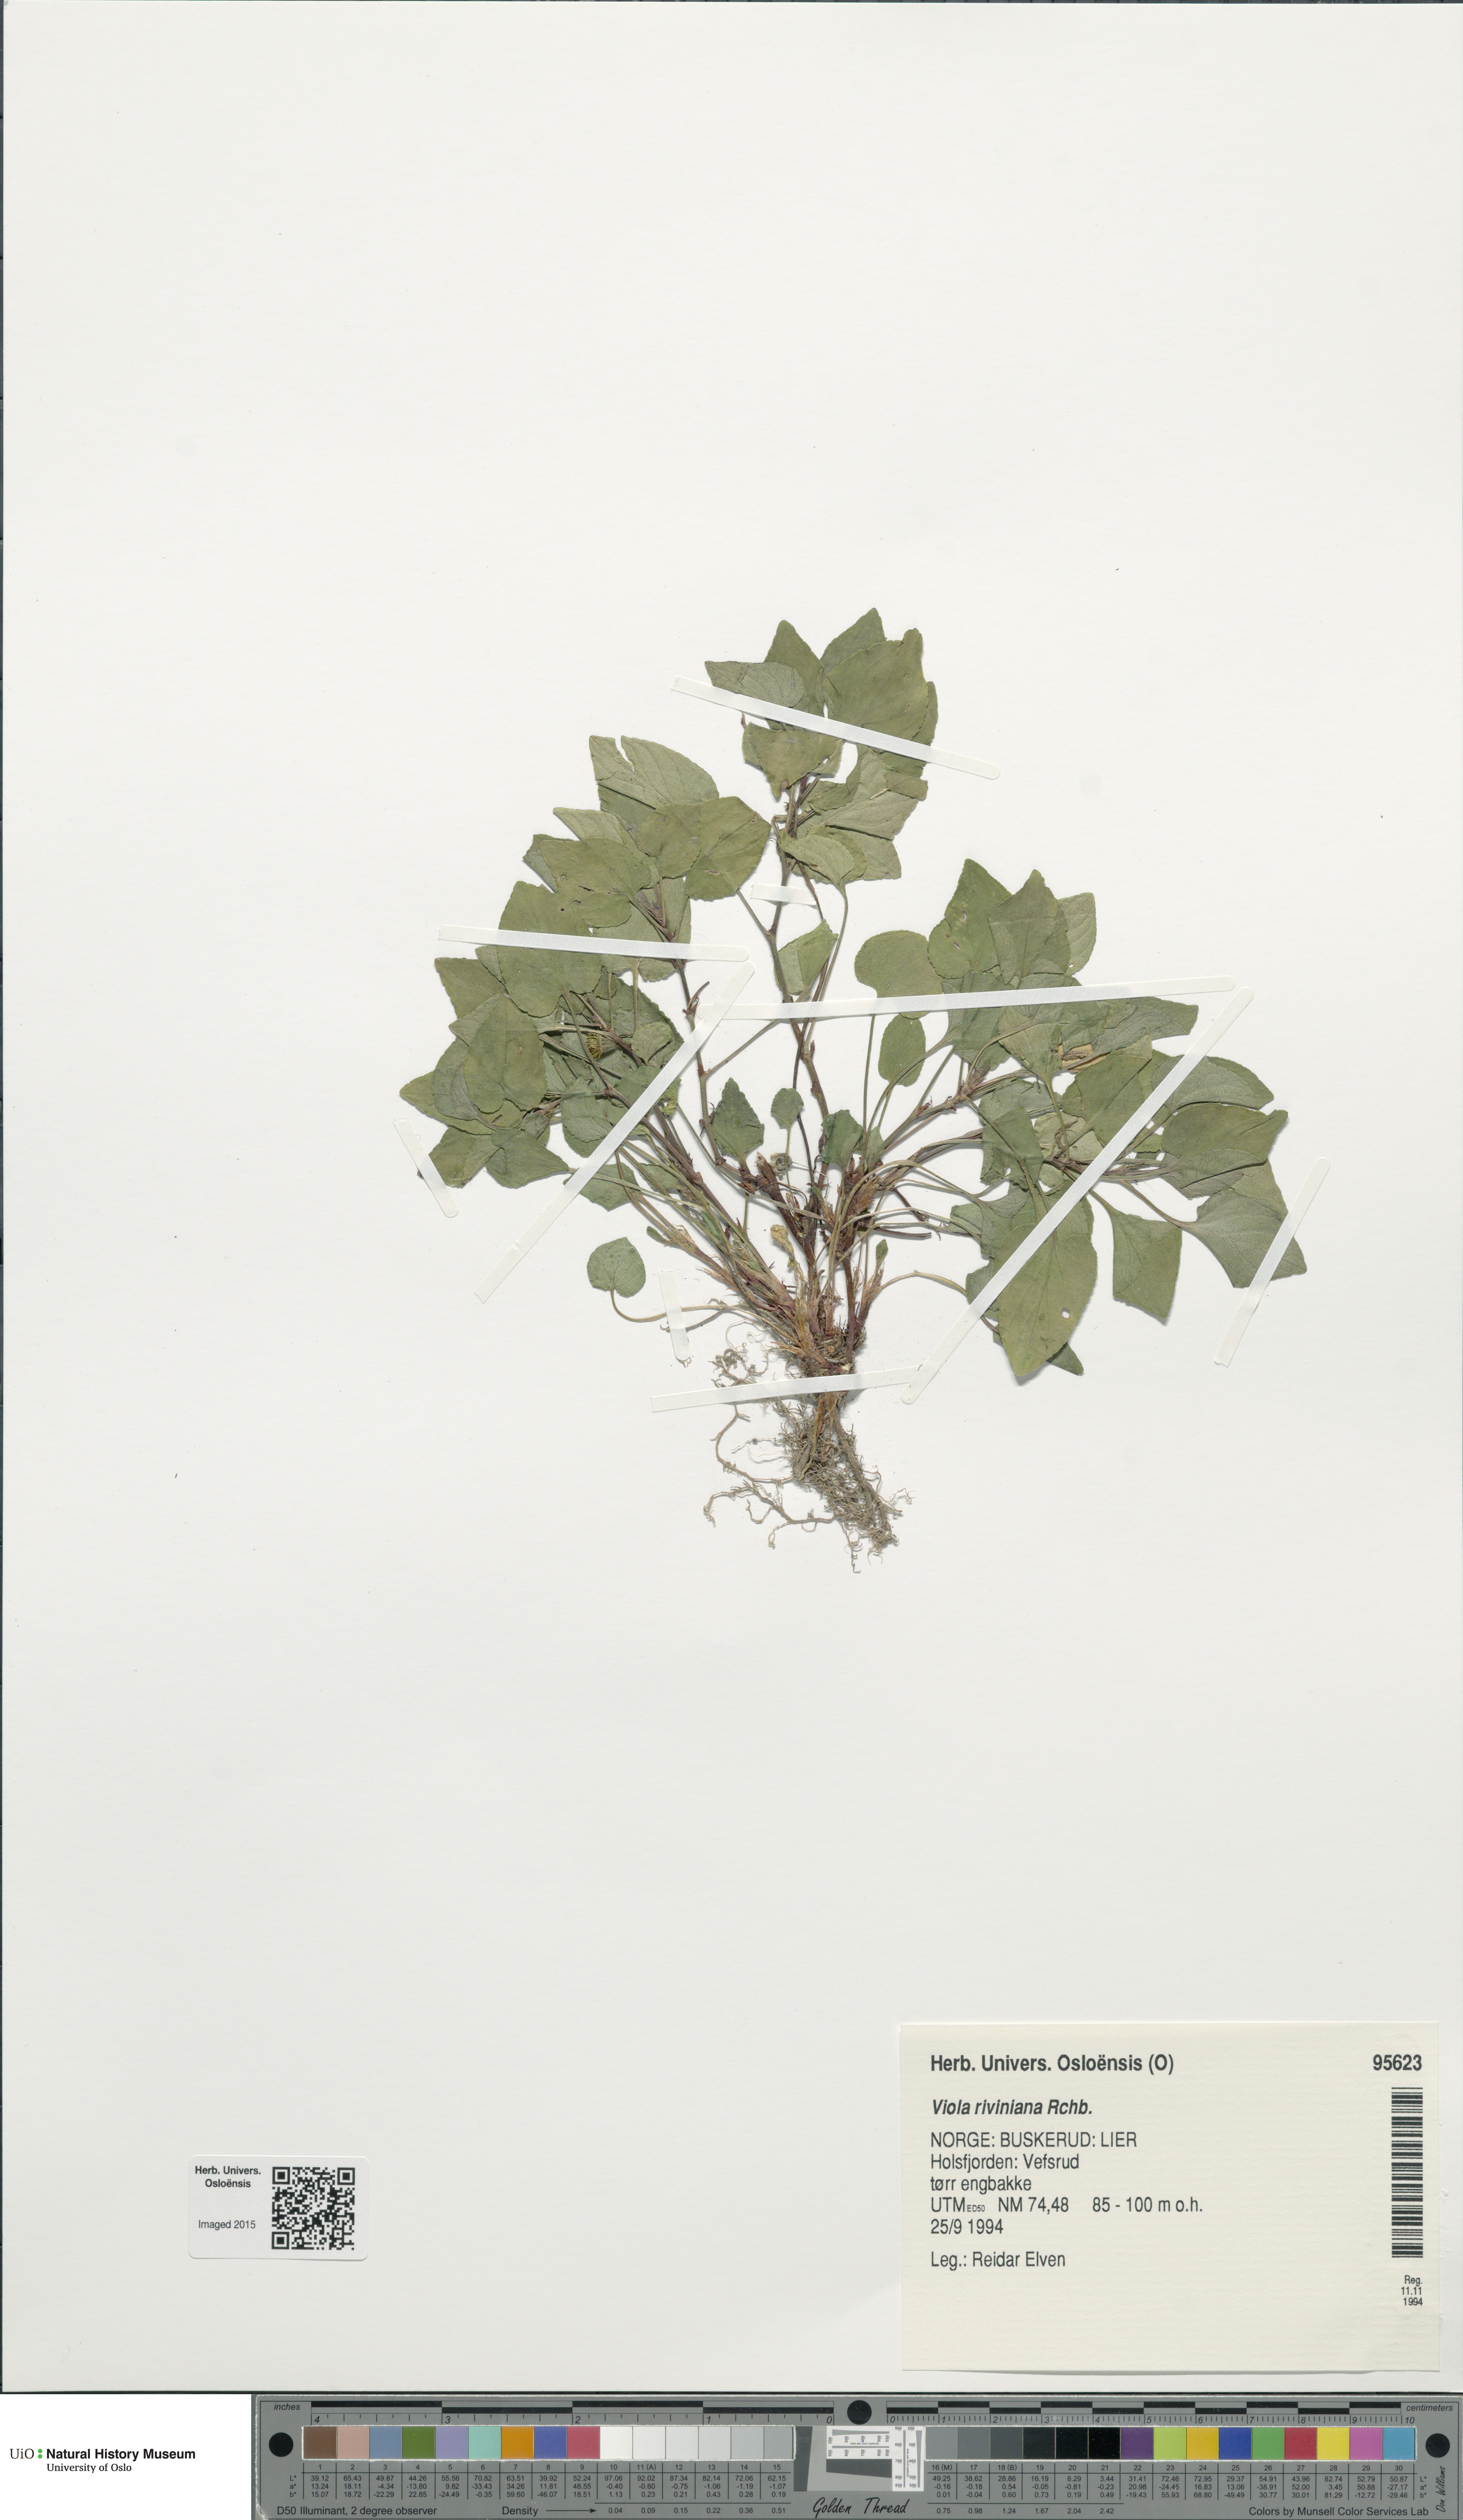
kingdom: Plantae
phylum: Tracheophyta
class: Magnoliopsida
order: Malpighiales
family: Violaceae
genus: Viola
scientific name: Viola riviniana
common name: Common dog-violet
